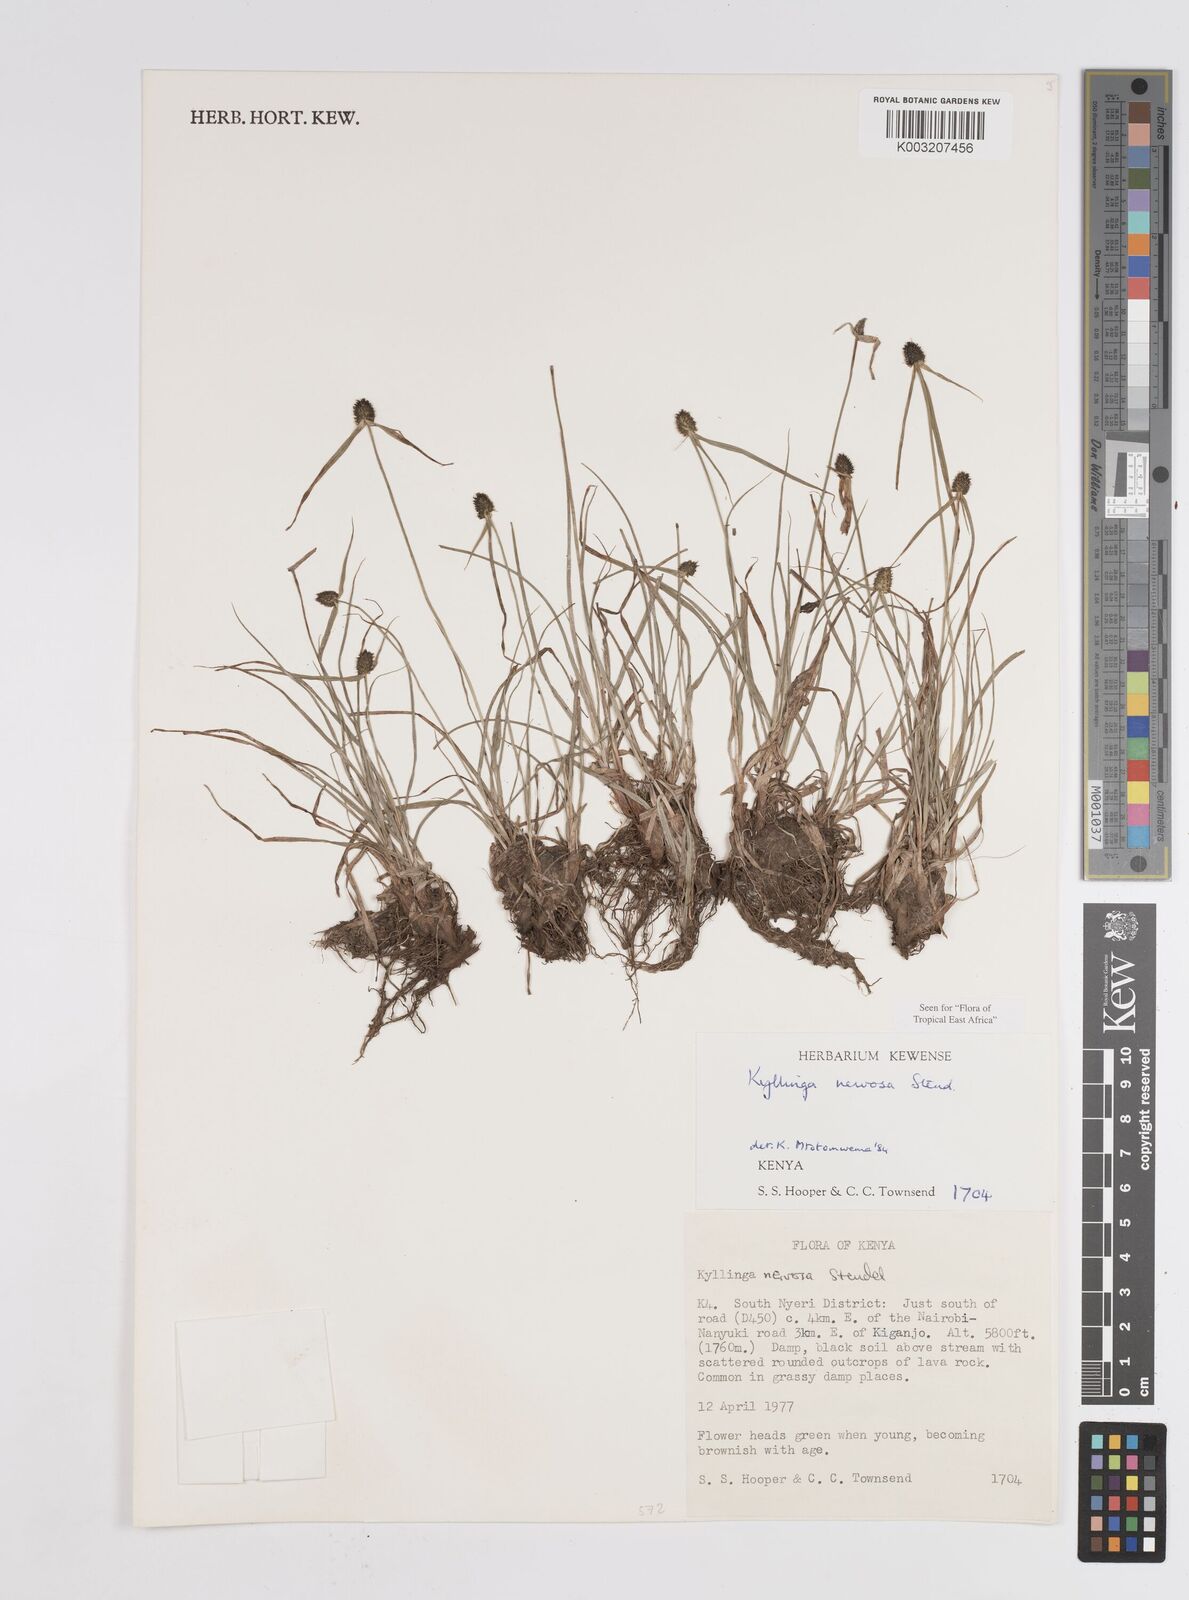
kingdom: Plantae
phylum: Tracheophyta
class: Liliopsida
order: Poales
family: Cyperaceae
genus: Cyperus
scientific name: Cyperus
